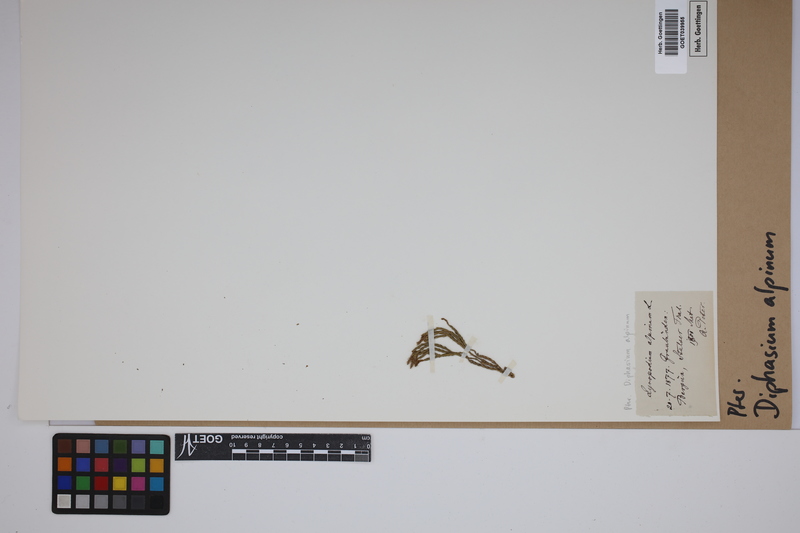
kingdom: Plantae
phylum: Tracheophyta
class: Lycopodiopsida
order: Lycopodiales
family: Lycopodiaceae
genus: Diphasiastrum
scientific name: Diphasiastrum alpinum
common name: Alpine clubmoss
